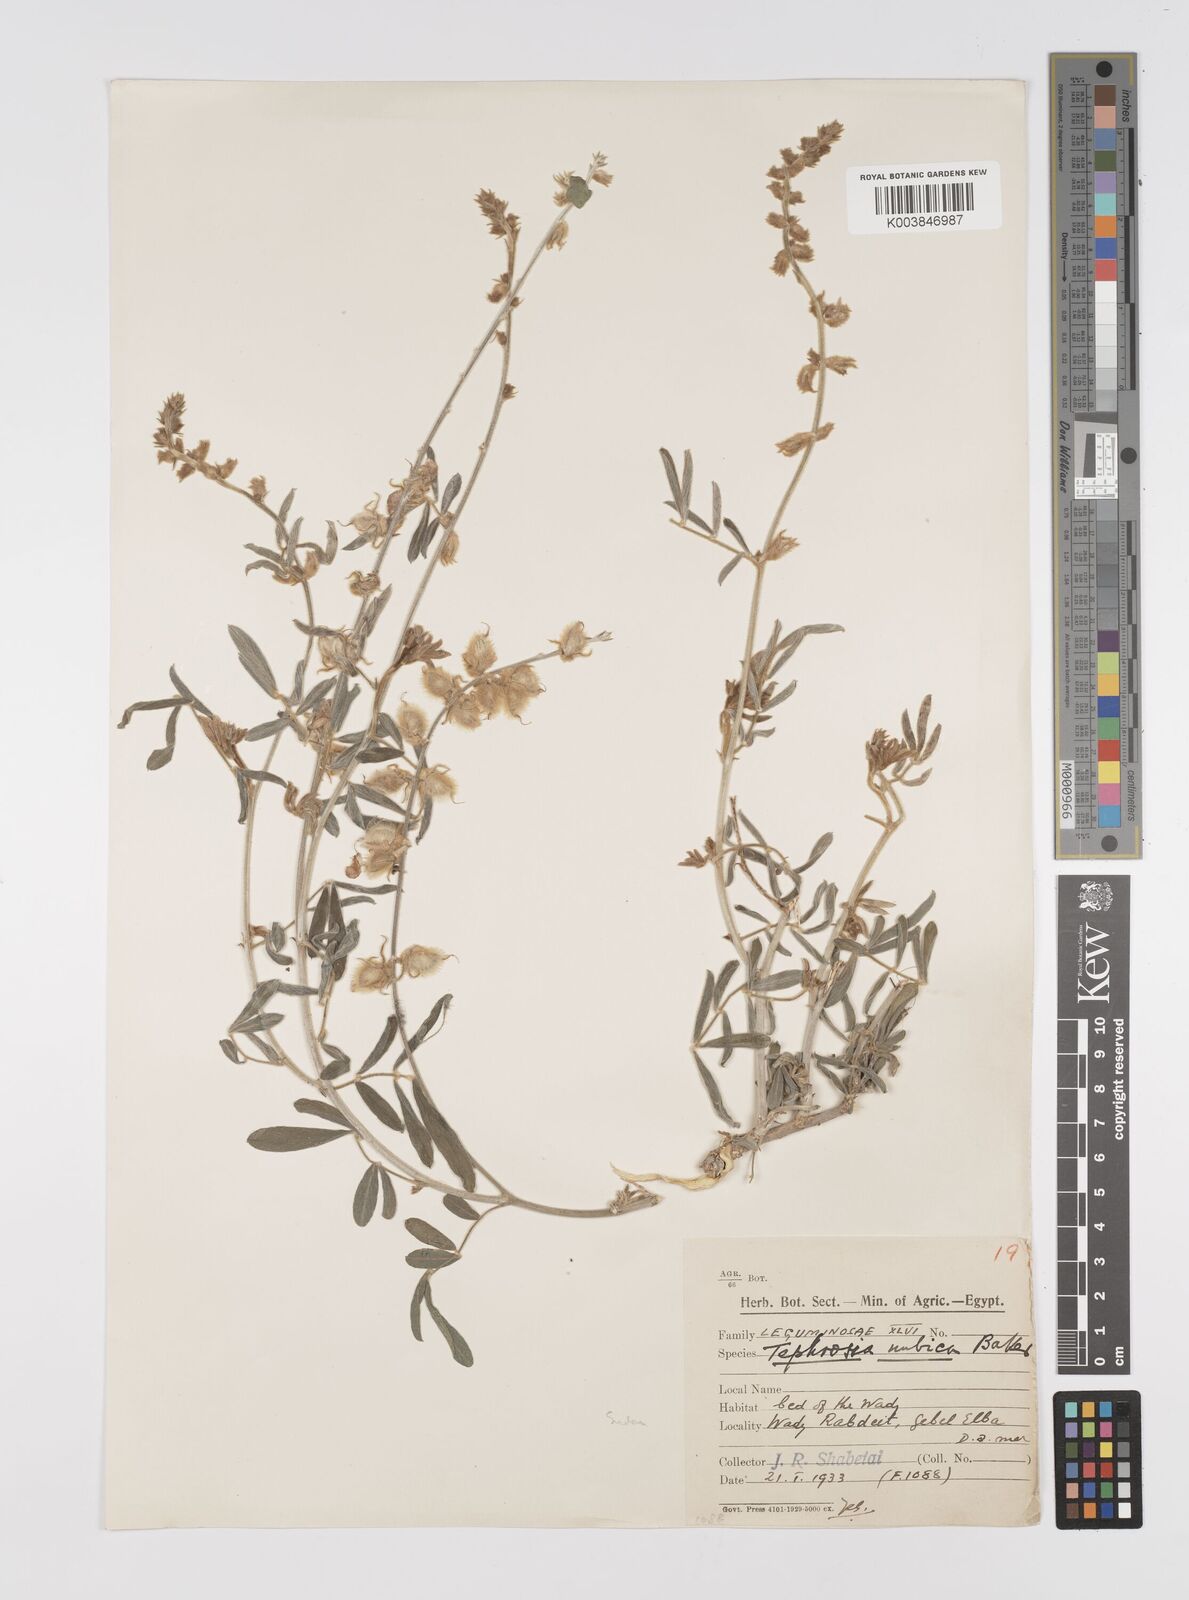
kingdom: Plantae
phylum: Tracheophyta
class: Magnoliopsida
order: Fabales
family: Fabaceae
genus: Tephrosia
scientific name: Tephrosia nubica
